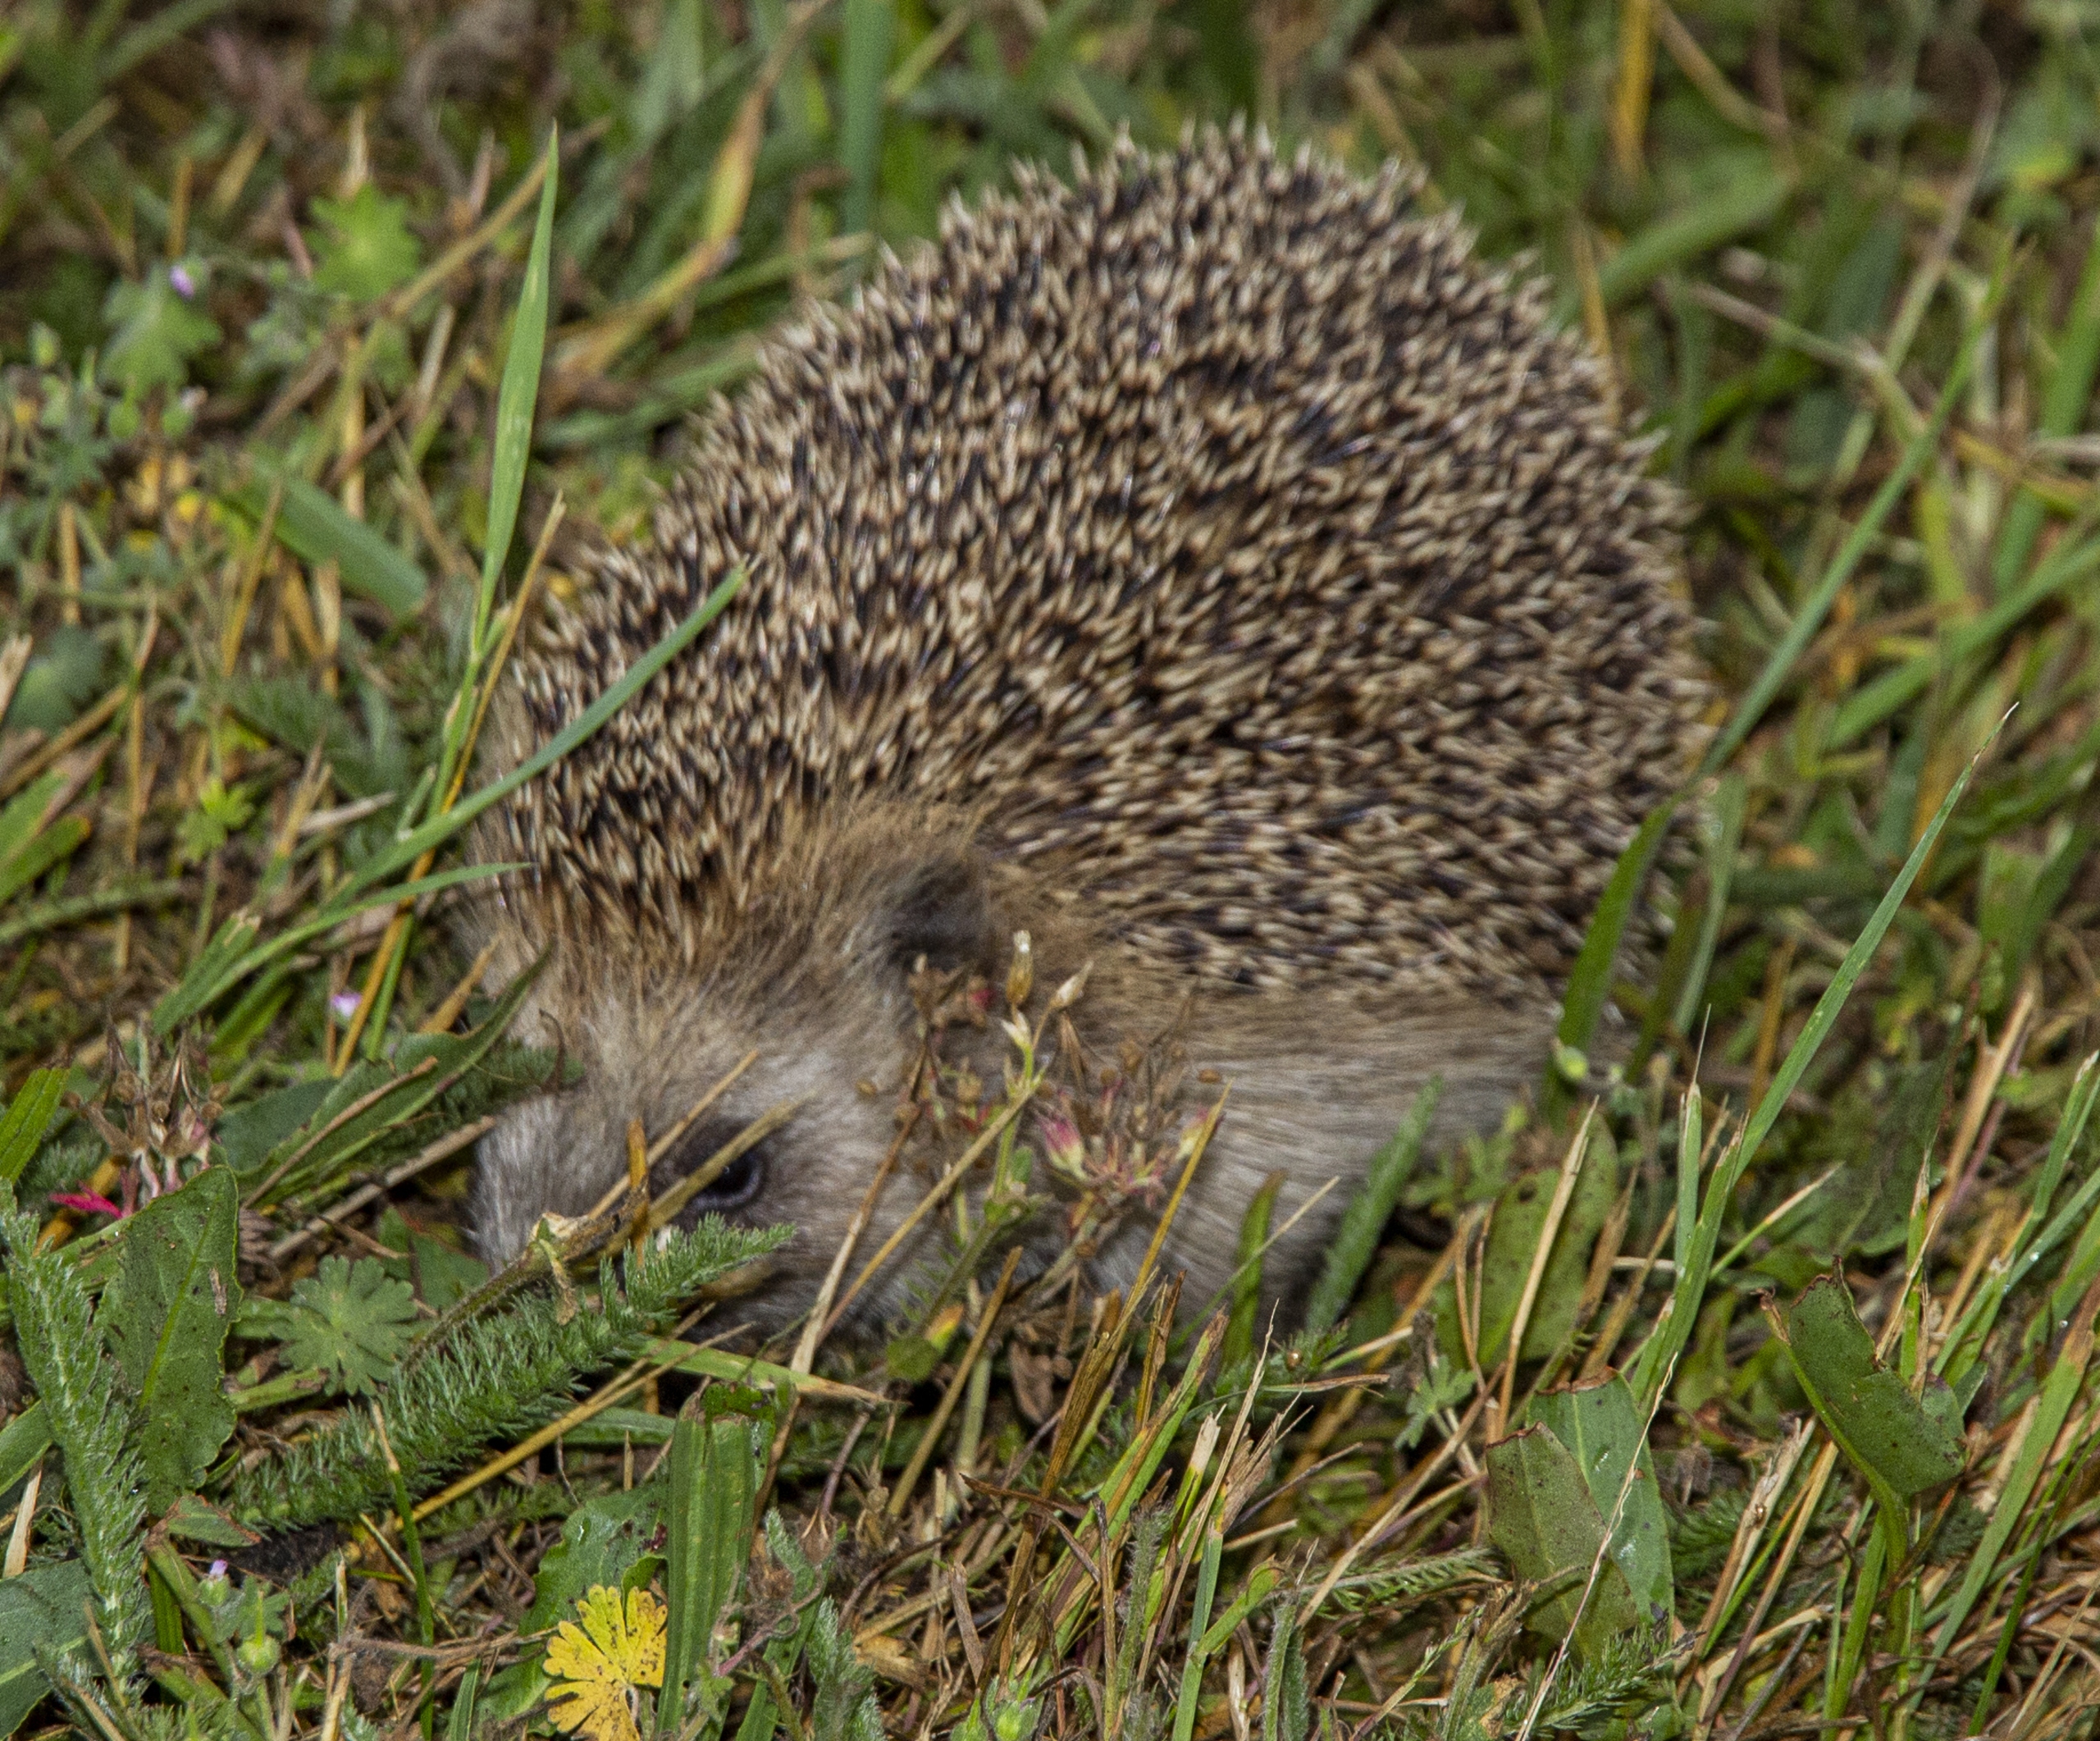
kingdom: Animalia
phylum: Chordata
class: Mammalia
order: Erinaceomorpha
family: Erinaceidae
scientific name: Erinaceidae
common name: Pindsvin
